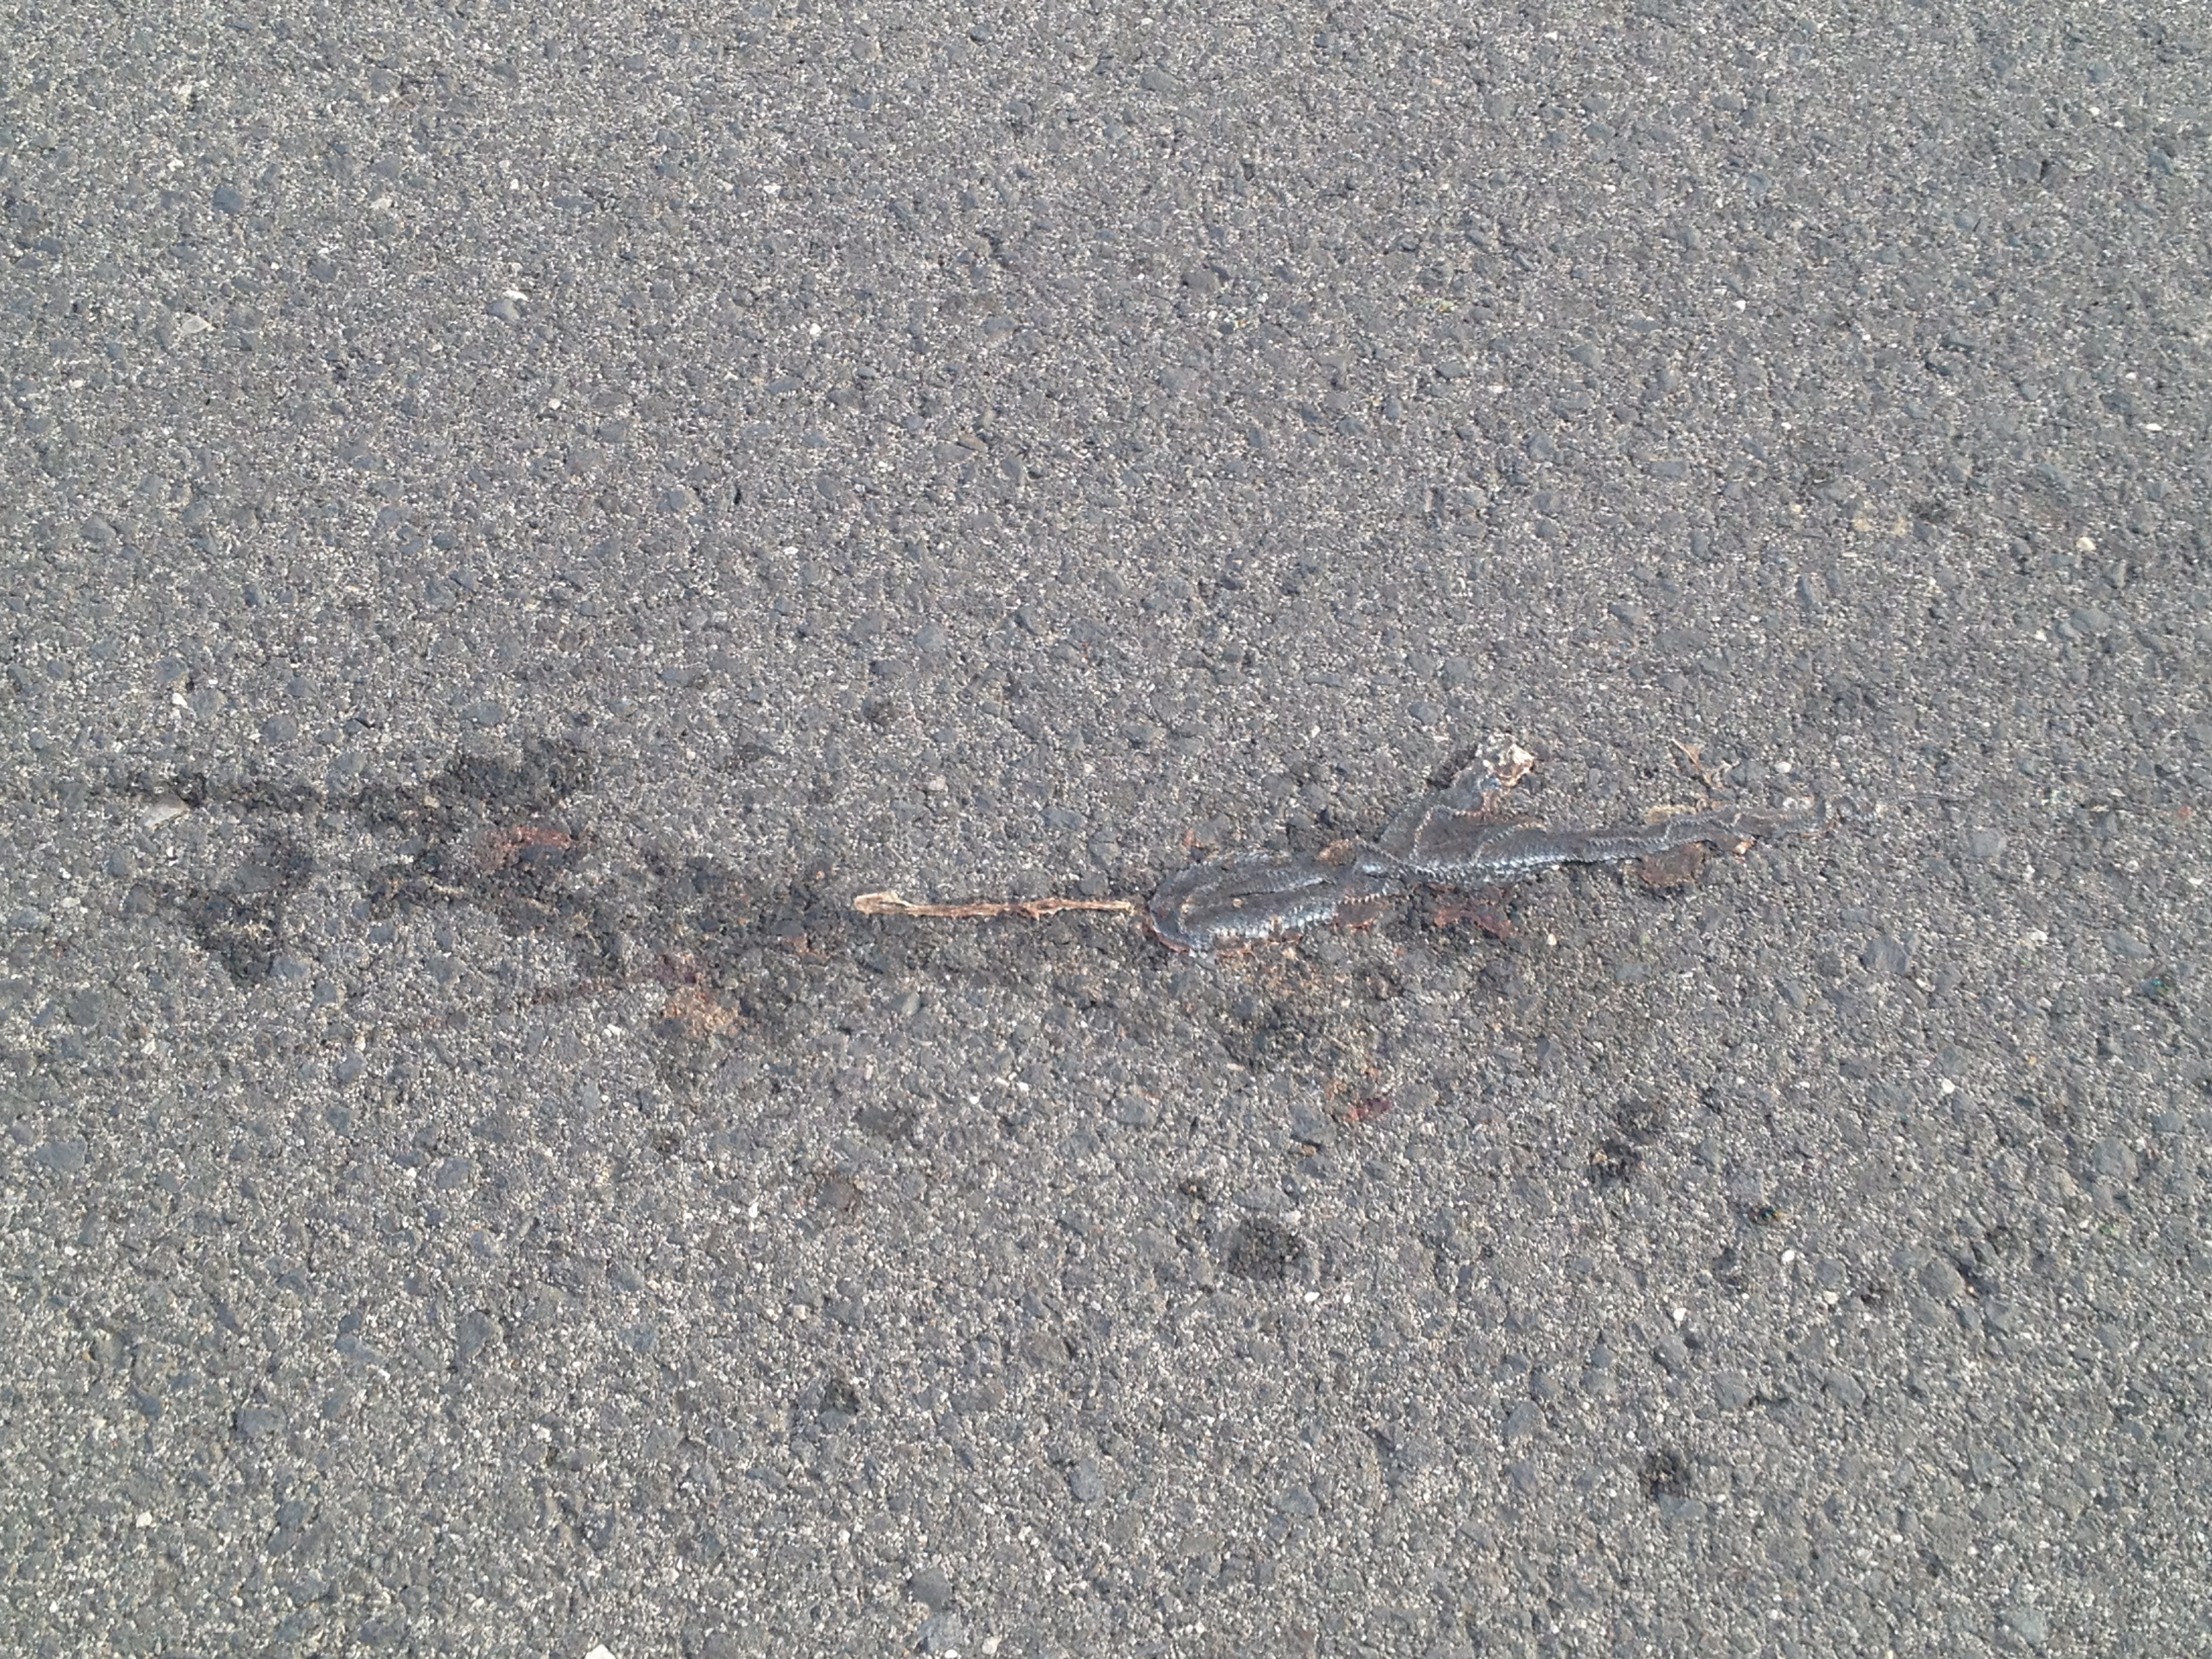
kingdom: Animalia
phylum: Chordata
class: Squamata
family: Colubridae
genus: Natrix
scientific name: Natrix natrix
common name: Grass snake
